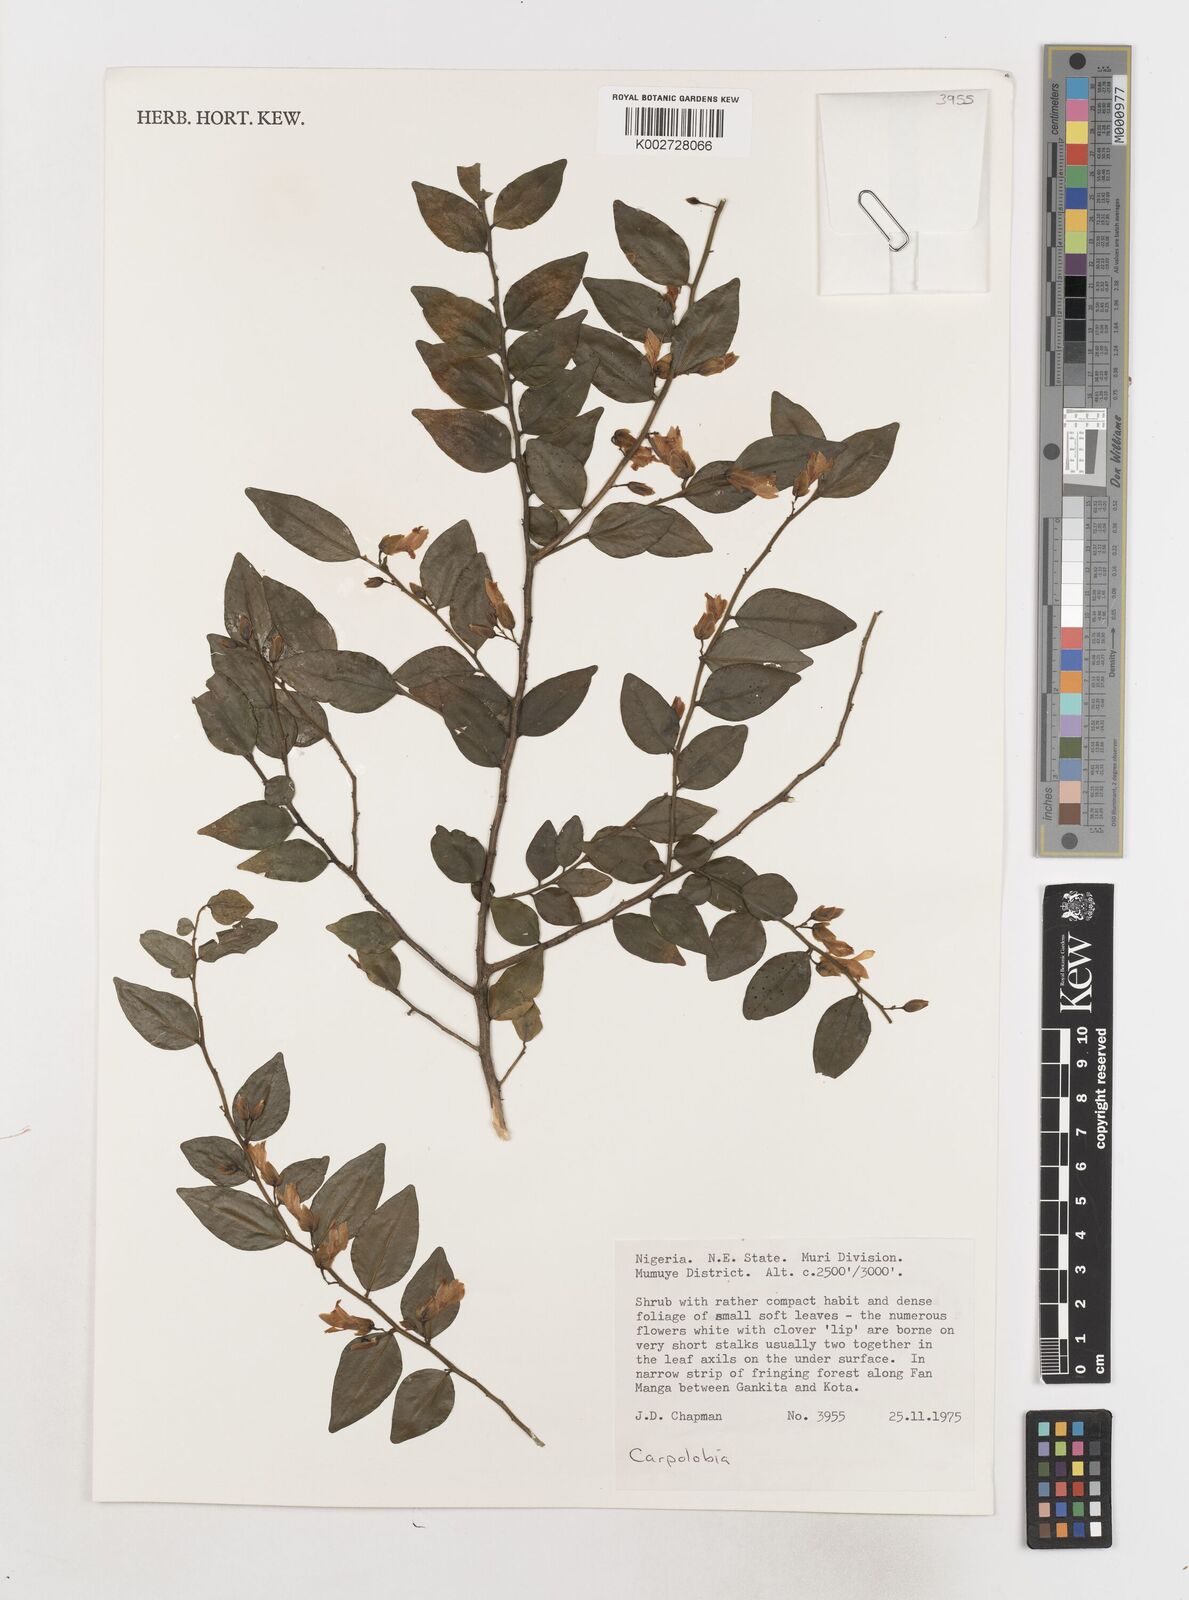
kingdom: Plantae
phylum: Tracheophyta
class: Magnoliopsida
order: Fabales
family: Polygalaceae
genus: Carpolobia
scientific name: Carpolobia
